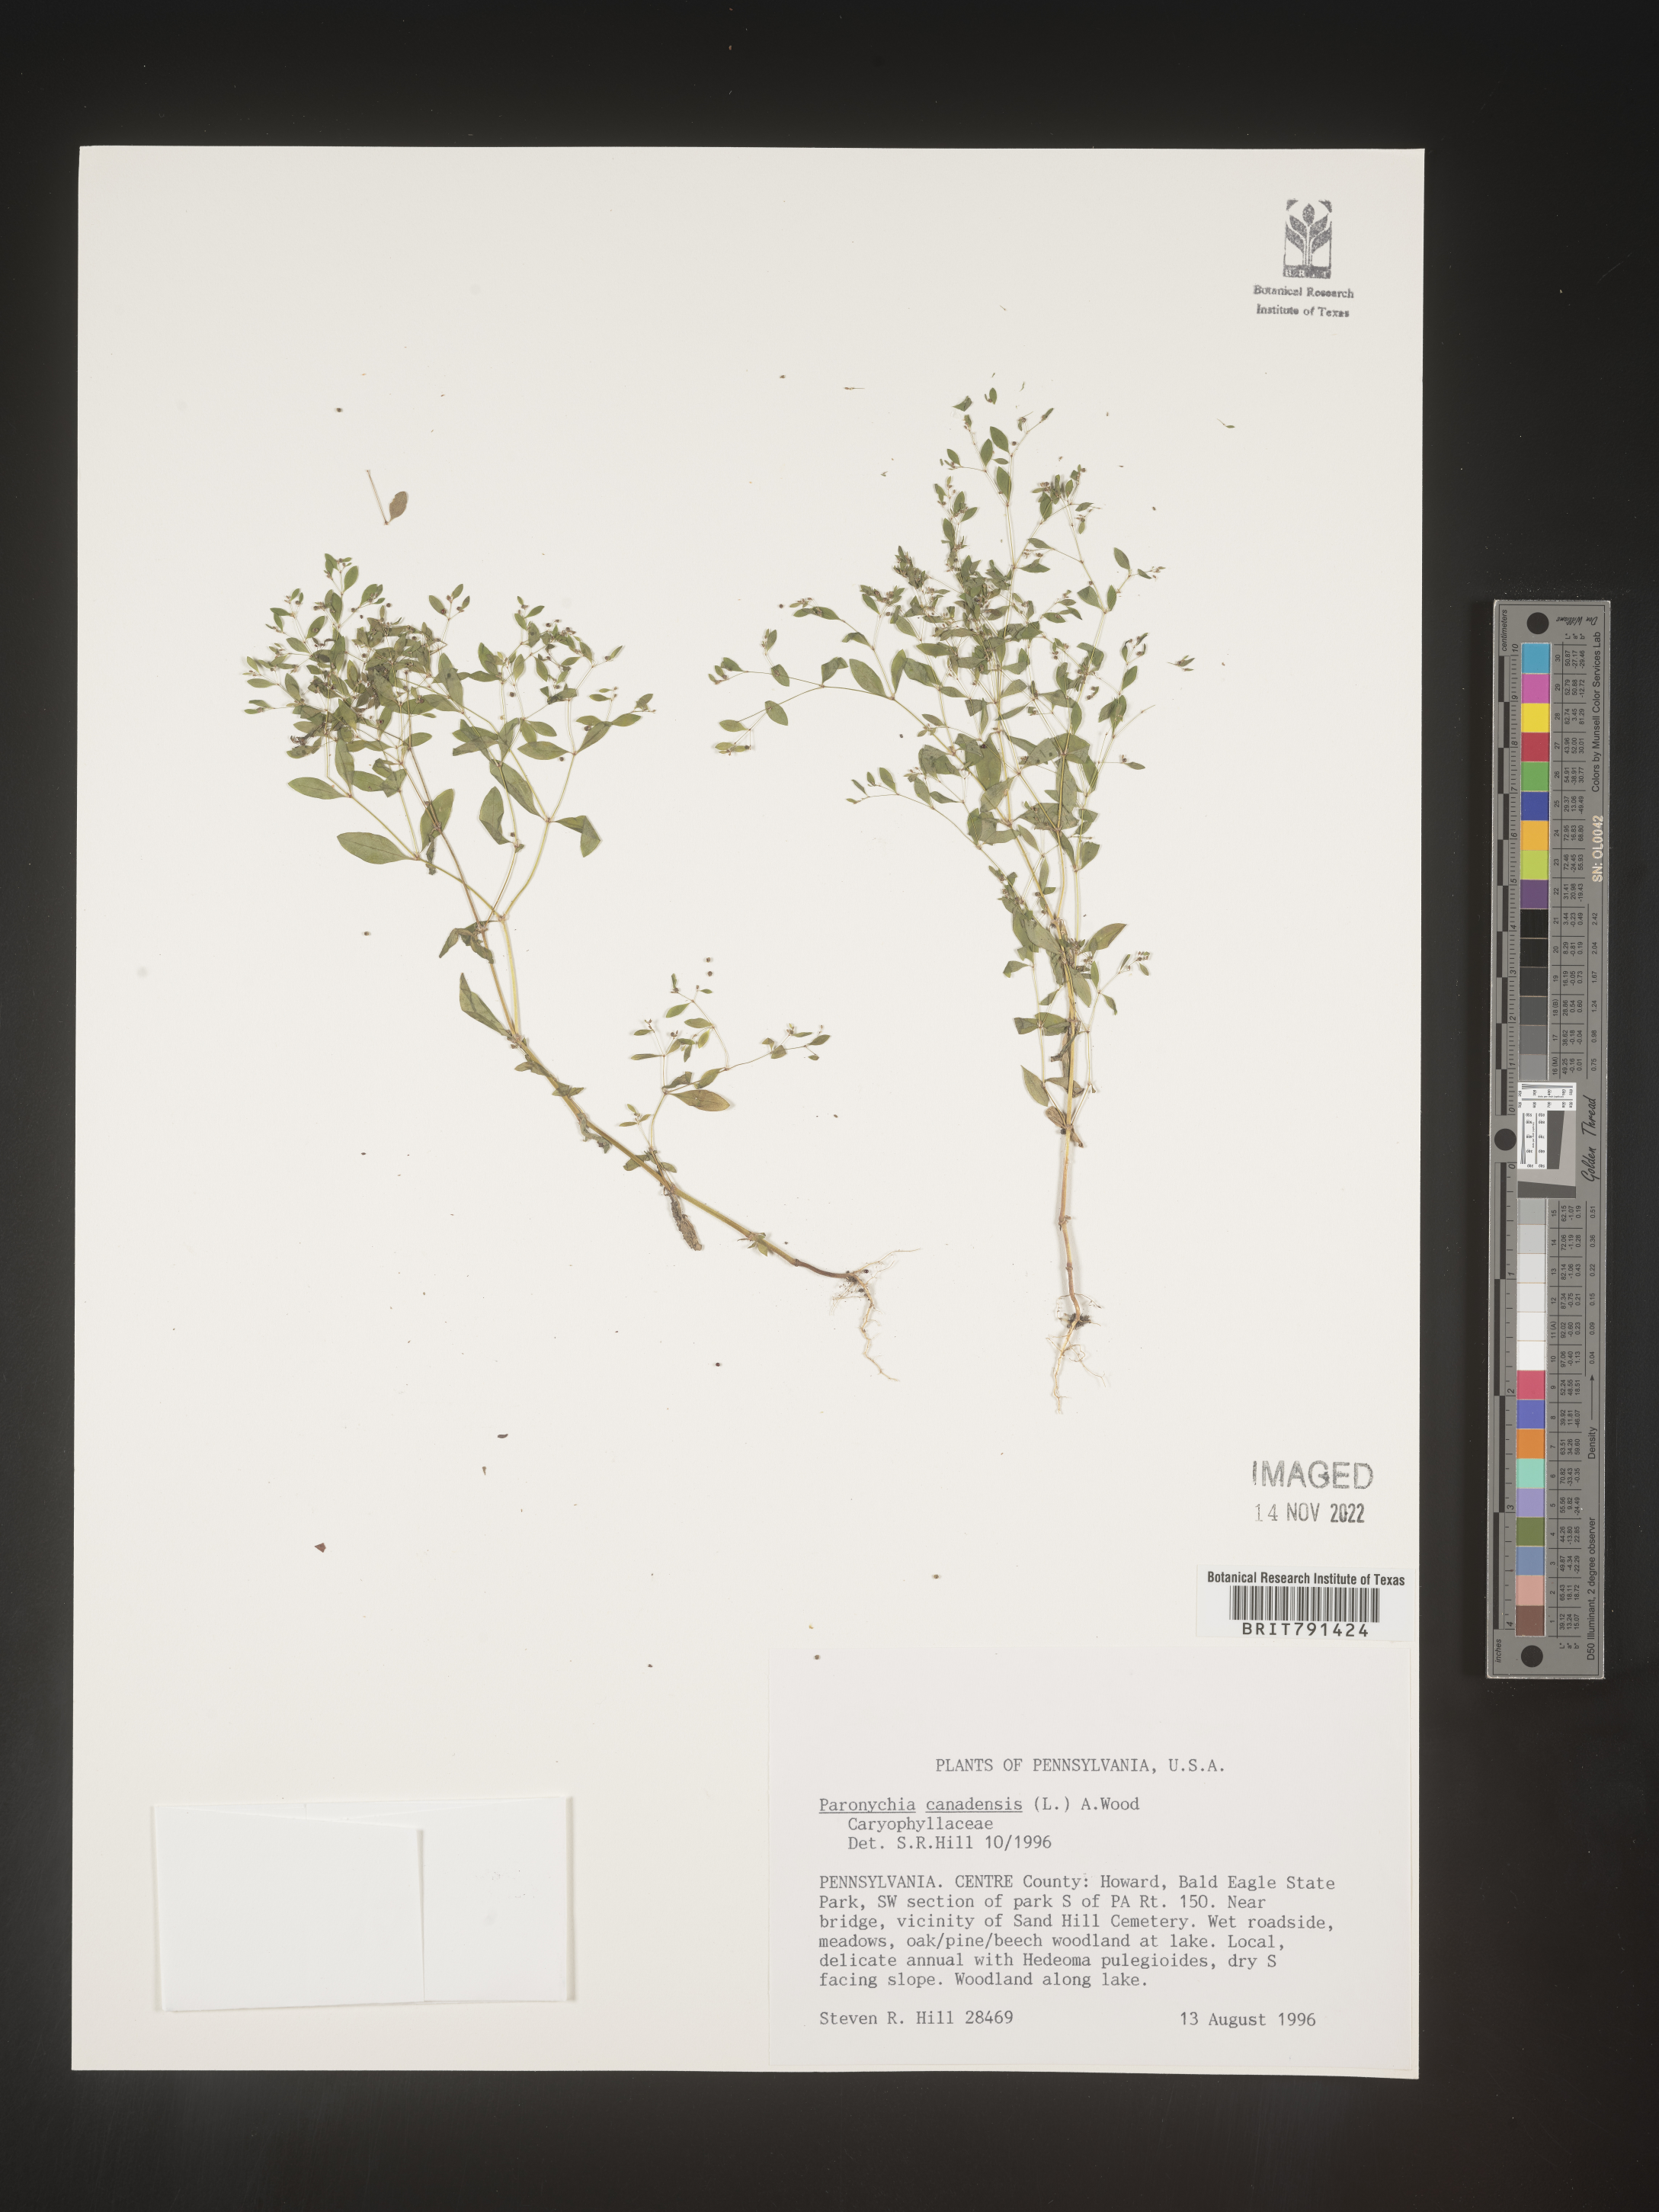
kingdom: Plantae
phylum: Tracheophyta
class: Magnoliopsida
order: Caryophyllales
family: Caryophyllaceae
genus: Paronychia
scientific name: Paronychia canadensis
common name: Canada forked nailwort
